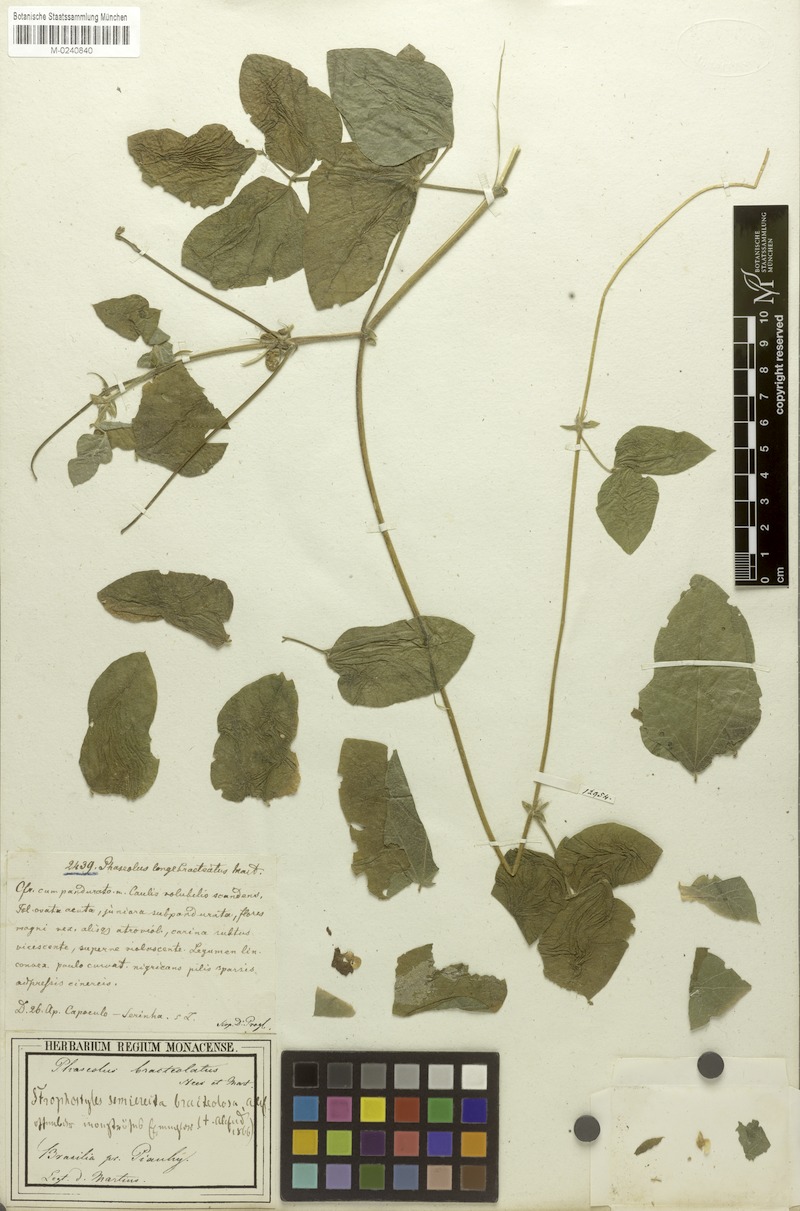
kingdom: Plantae
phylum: Tracheophyta
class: Magnoliopsida
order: Fabales
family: Fabaceae
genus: Macroptilium
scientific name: Macroptilium bracteatum
